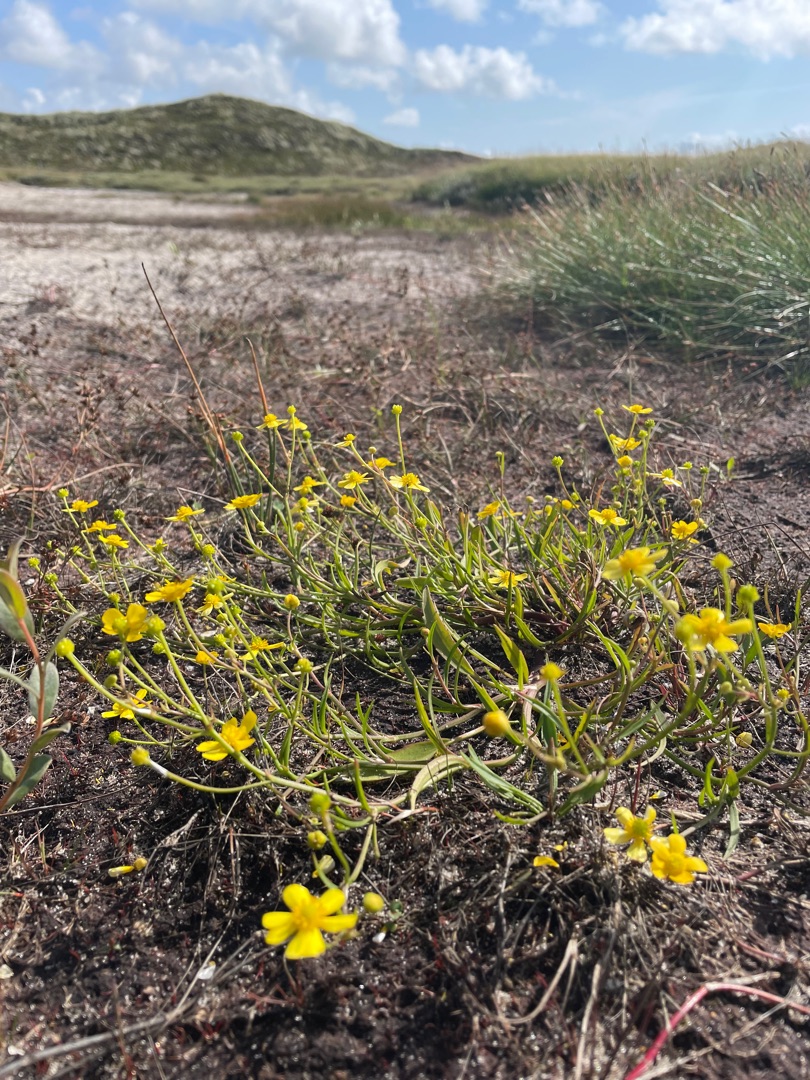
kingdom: Plantae
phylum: Tracheophyta
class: Magnoliopsida
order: Ranunculales
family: Ranunculaceae
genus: Ranunculus
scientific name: Ranunculus flammula
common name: Kær-ranunkel
